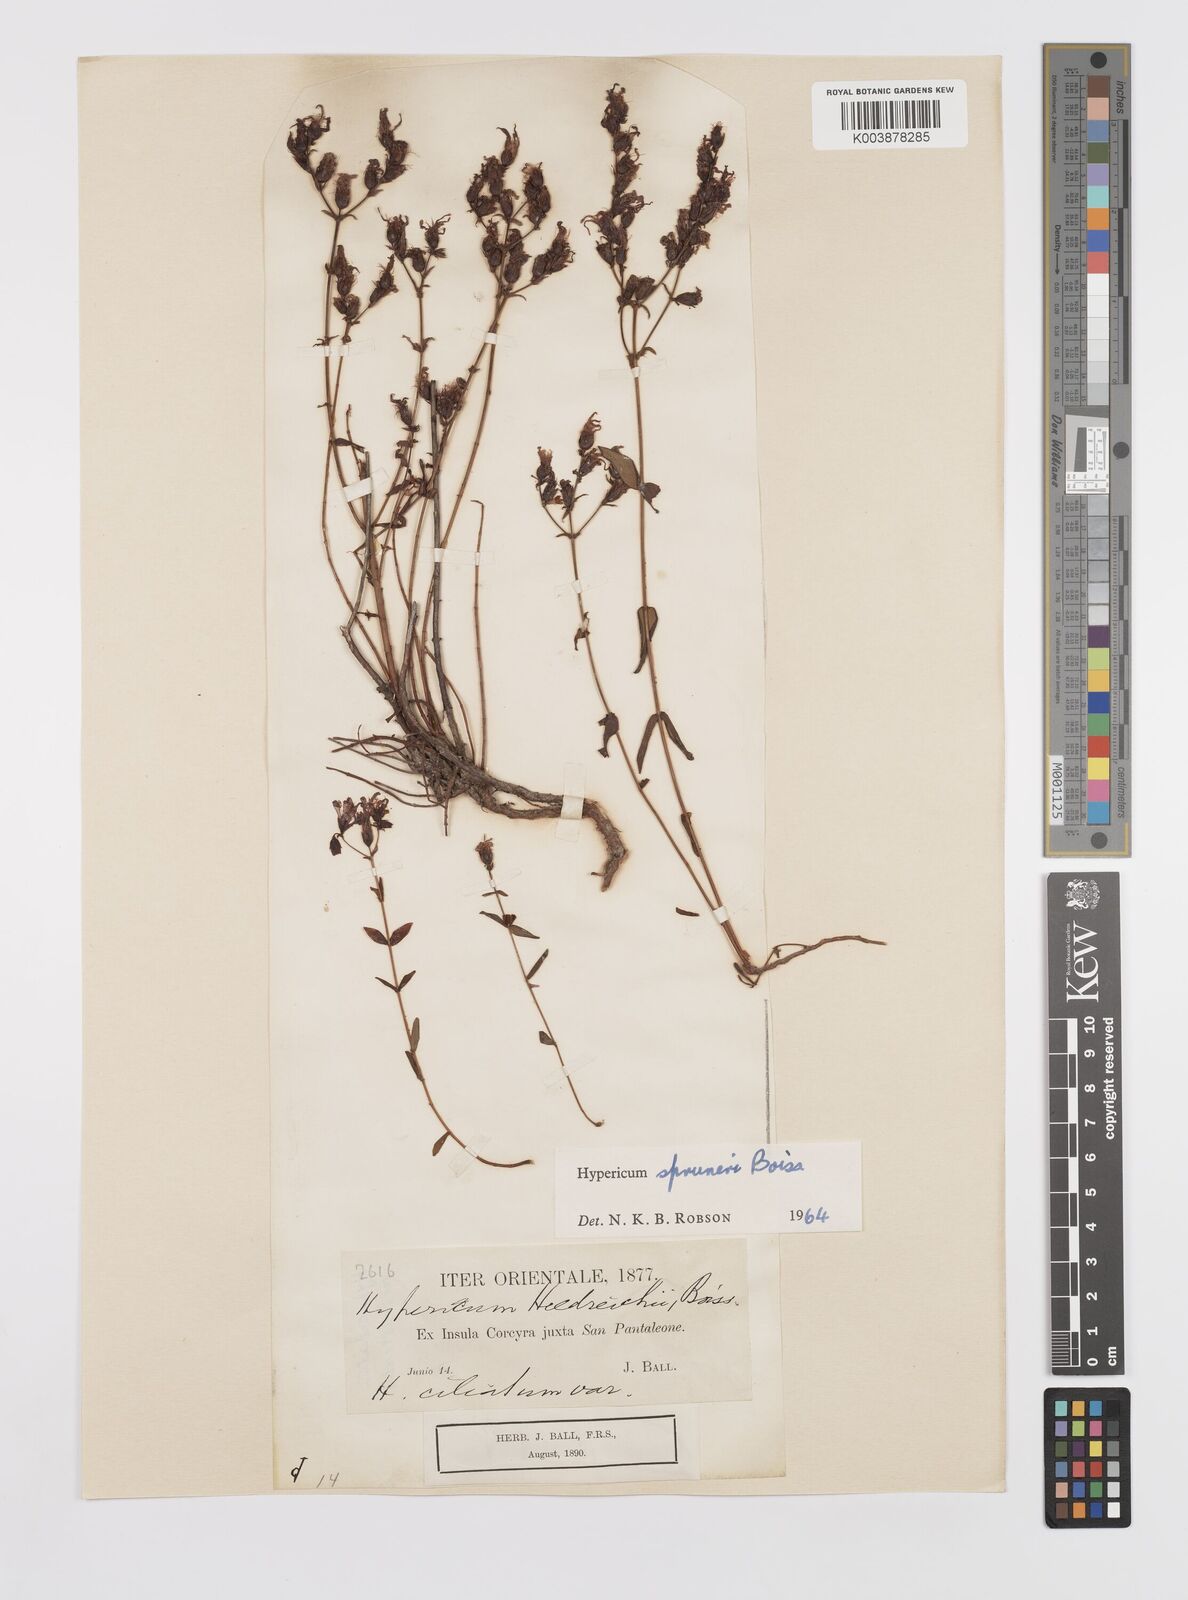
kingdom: Plantae
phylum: Tracheophyta
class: Magnoliopsida
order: Malpighiales
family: Hypericaceae
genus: Hypericum
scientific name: Hypericum spruneri
